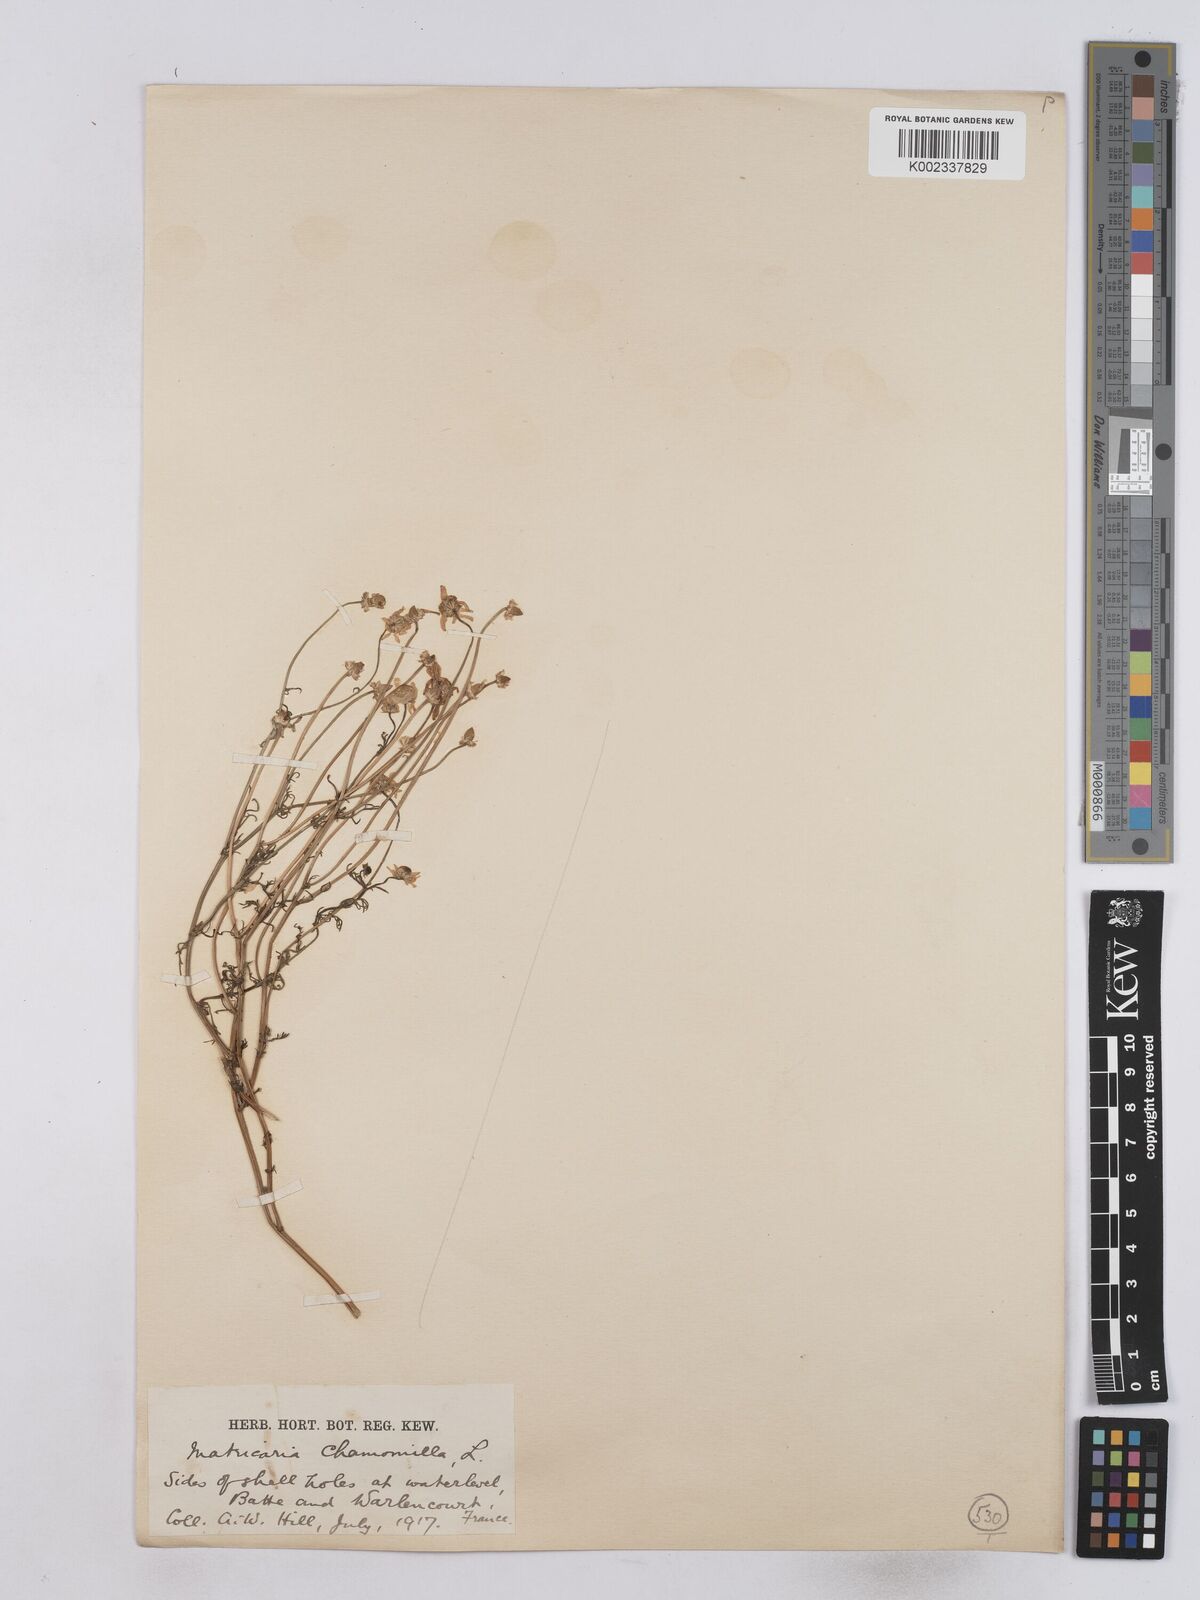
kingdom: Plantae
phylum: Tracheophyta
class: Magnoliopsida
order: Asterales
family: Asteraceae
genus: Matricaria
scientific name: Matricaria chamomilla
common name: Scented mayweed
